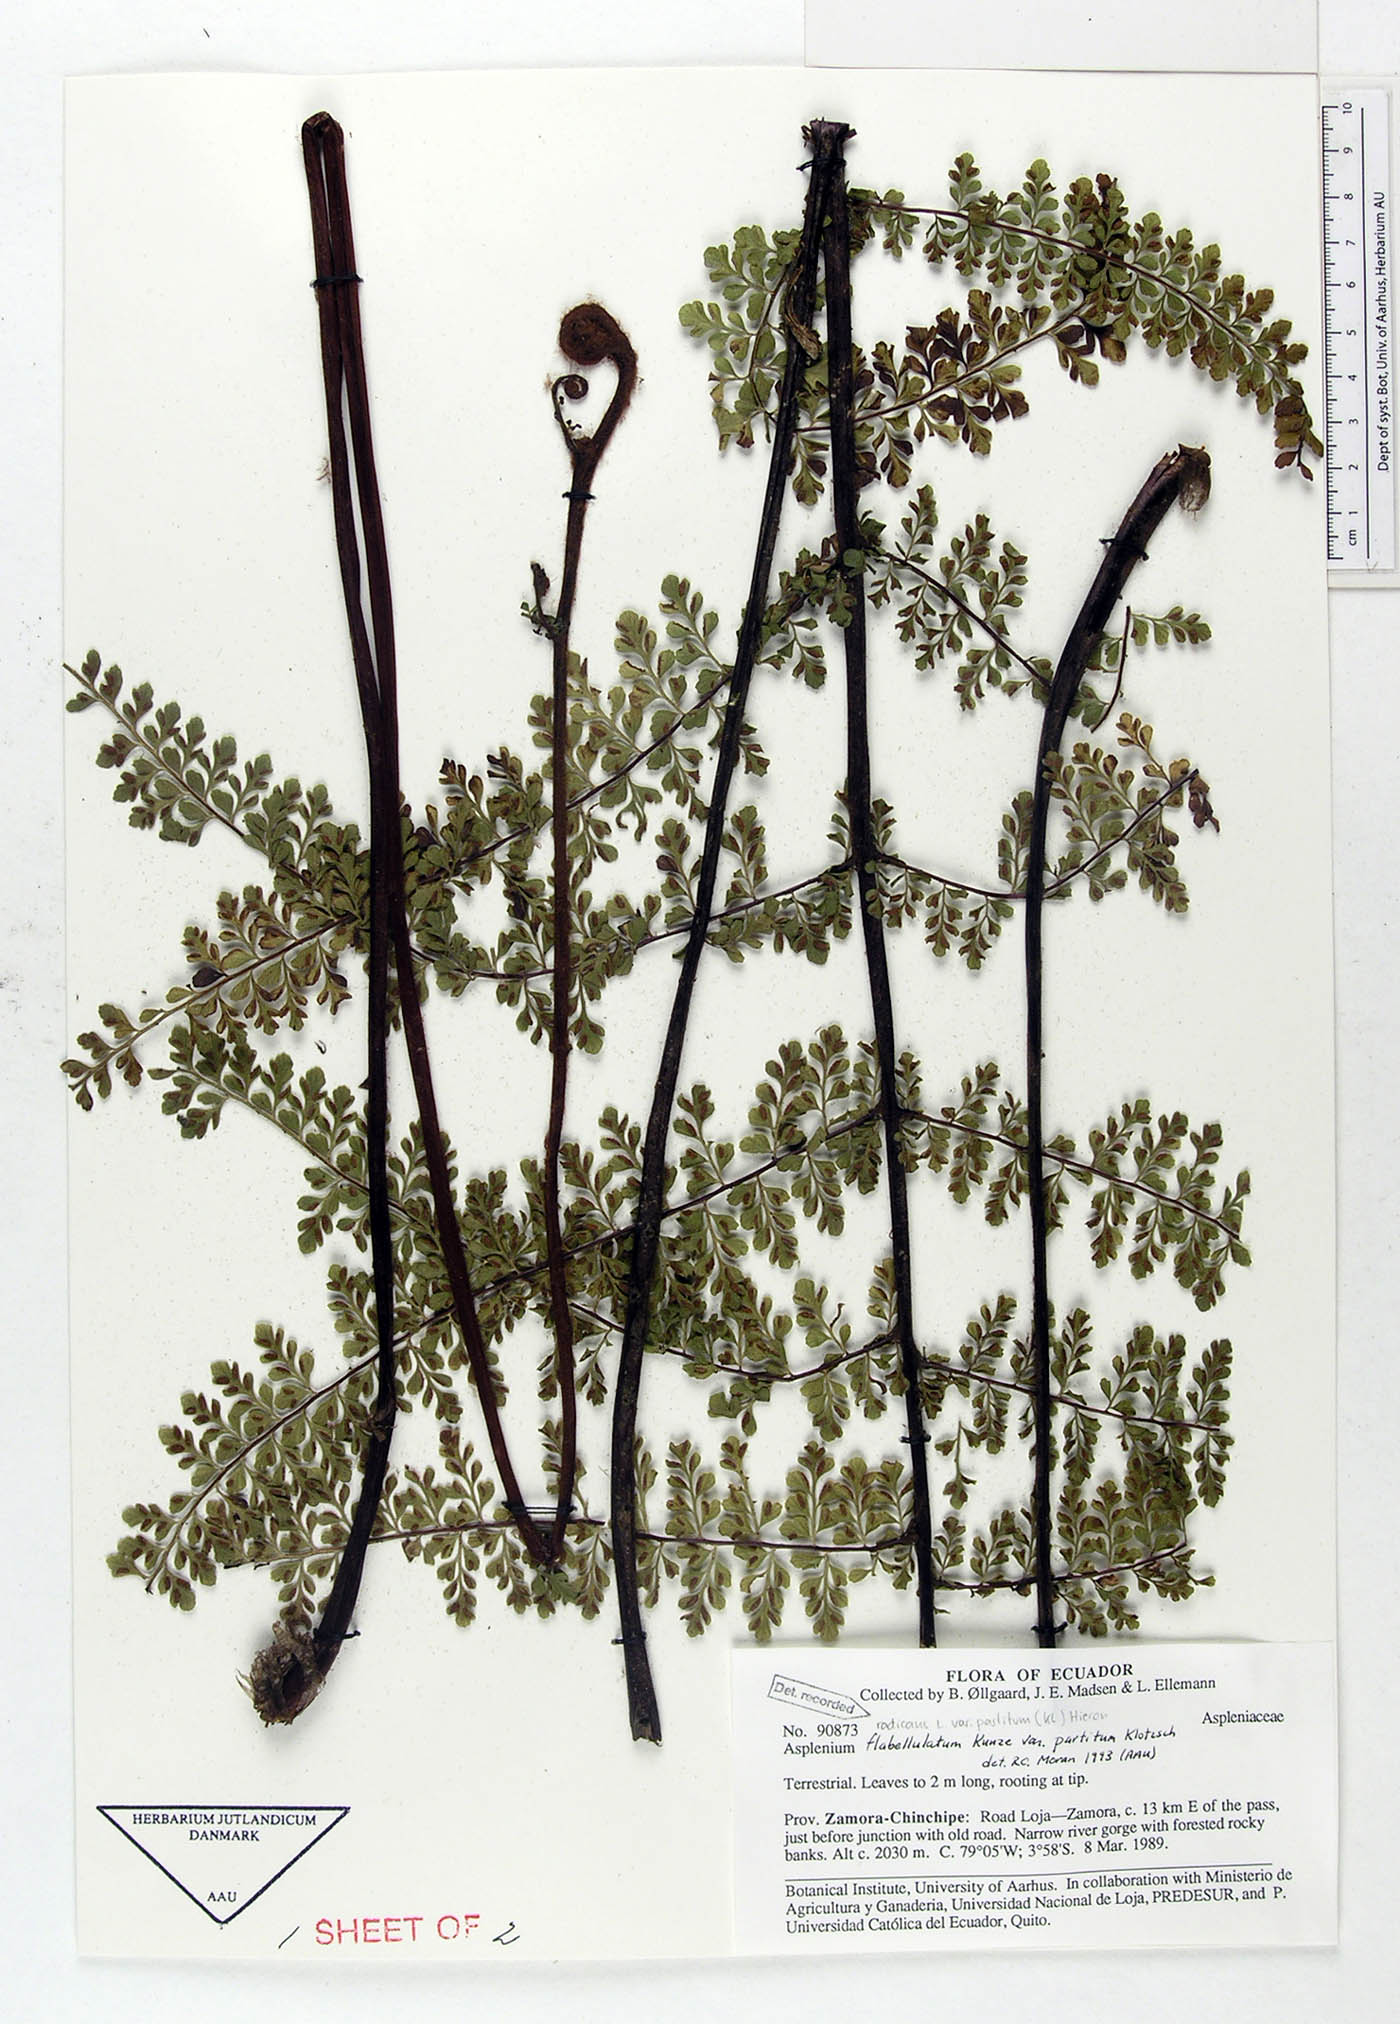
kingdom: Plantae
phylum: Tracheophyta
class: Polypodiopsida
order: Polypodiales
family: Aspleniaceae
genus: Asplenium
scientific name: Asplenium flabellulatum
